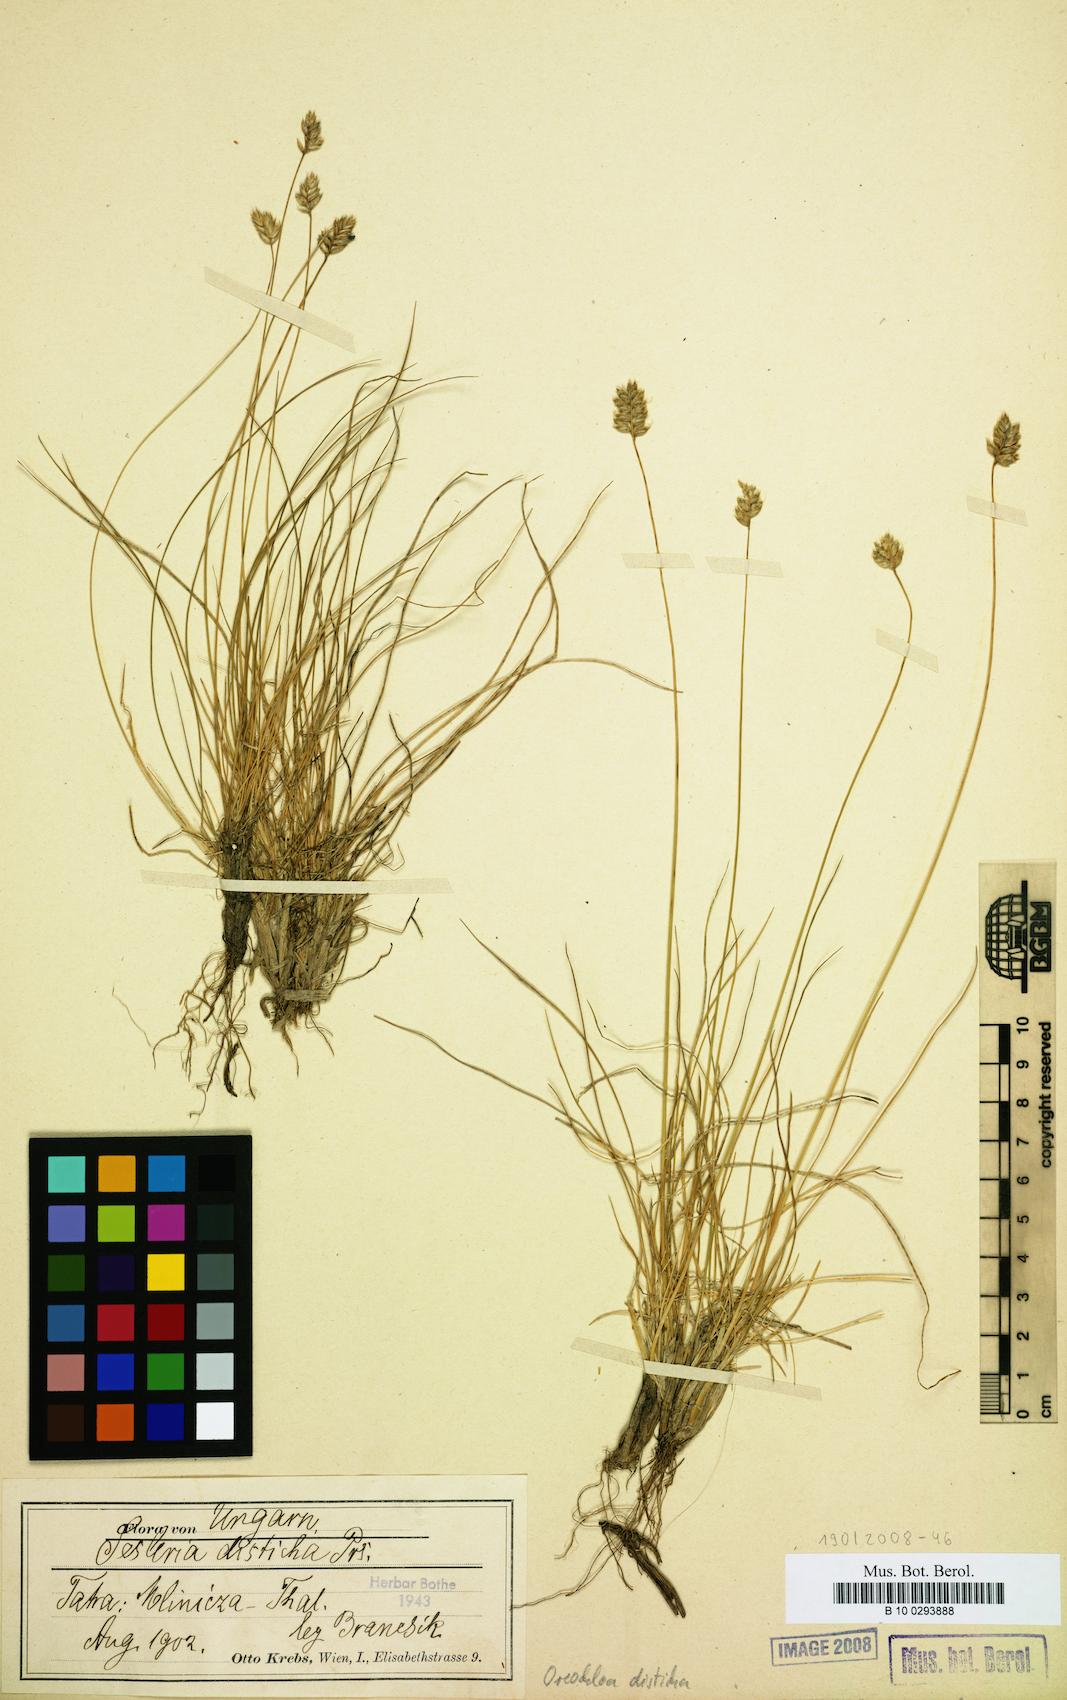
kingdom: Plantae
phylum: Tracheophyta
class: Liliopsida
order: Poales
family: Poaceae
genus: Oreochloa
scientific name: Oreochloa disticha
